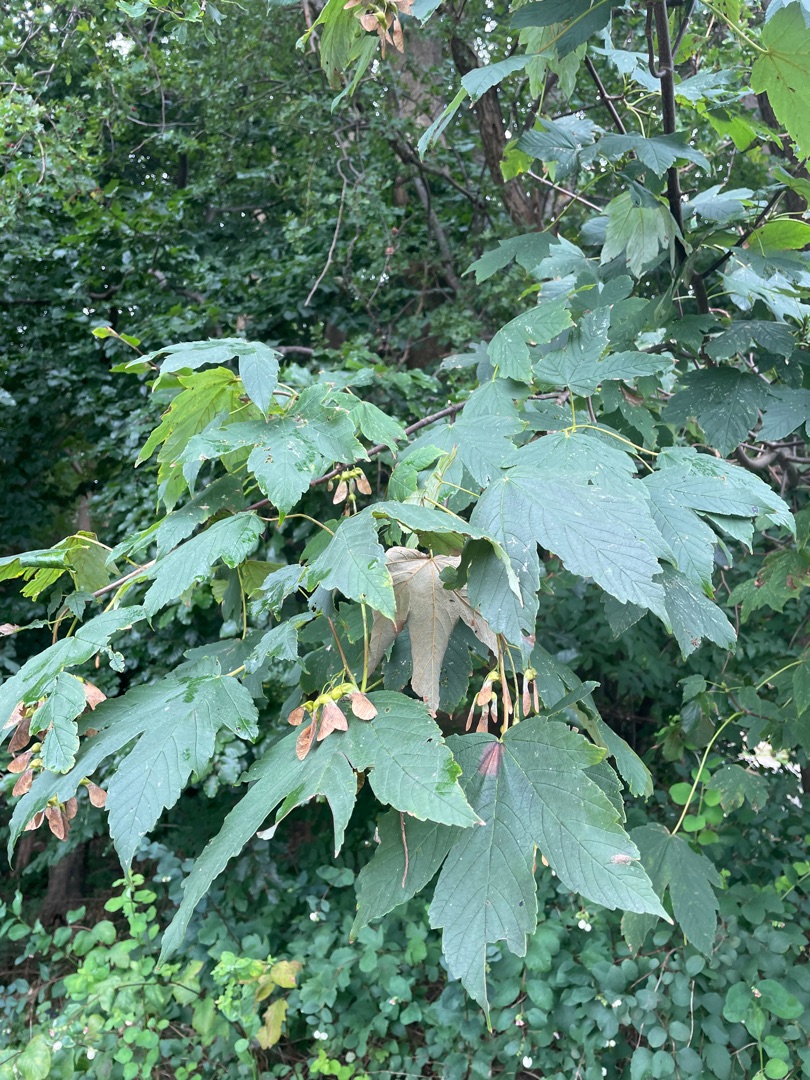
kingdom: Plantae
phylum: Tracheophyta
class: Magnoliopsida
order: Sapindales
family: Sapindaceae
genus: Acer
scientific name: Acer pseudoplatanus
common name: Ahorn
